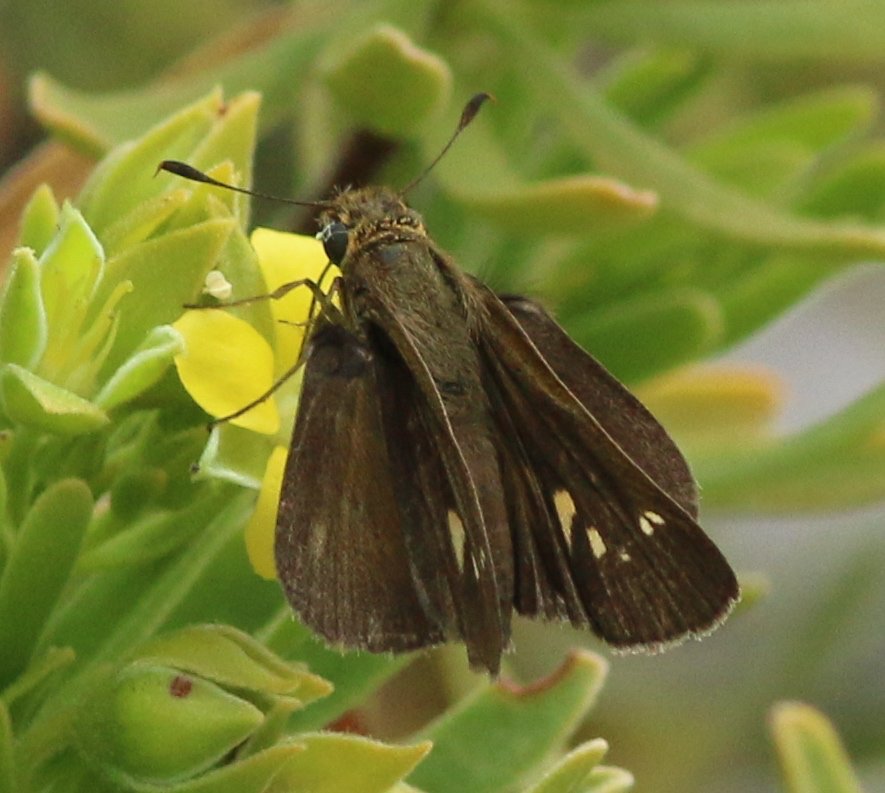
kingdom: Animalia
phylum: Arthropoda
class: Insecta
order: Lepidoptera
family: Hesperiidae
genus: Panoquina
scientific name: Panoquina panoquinoides
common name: Obscure Skipper
